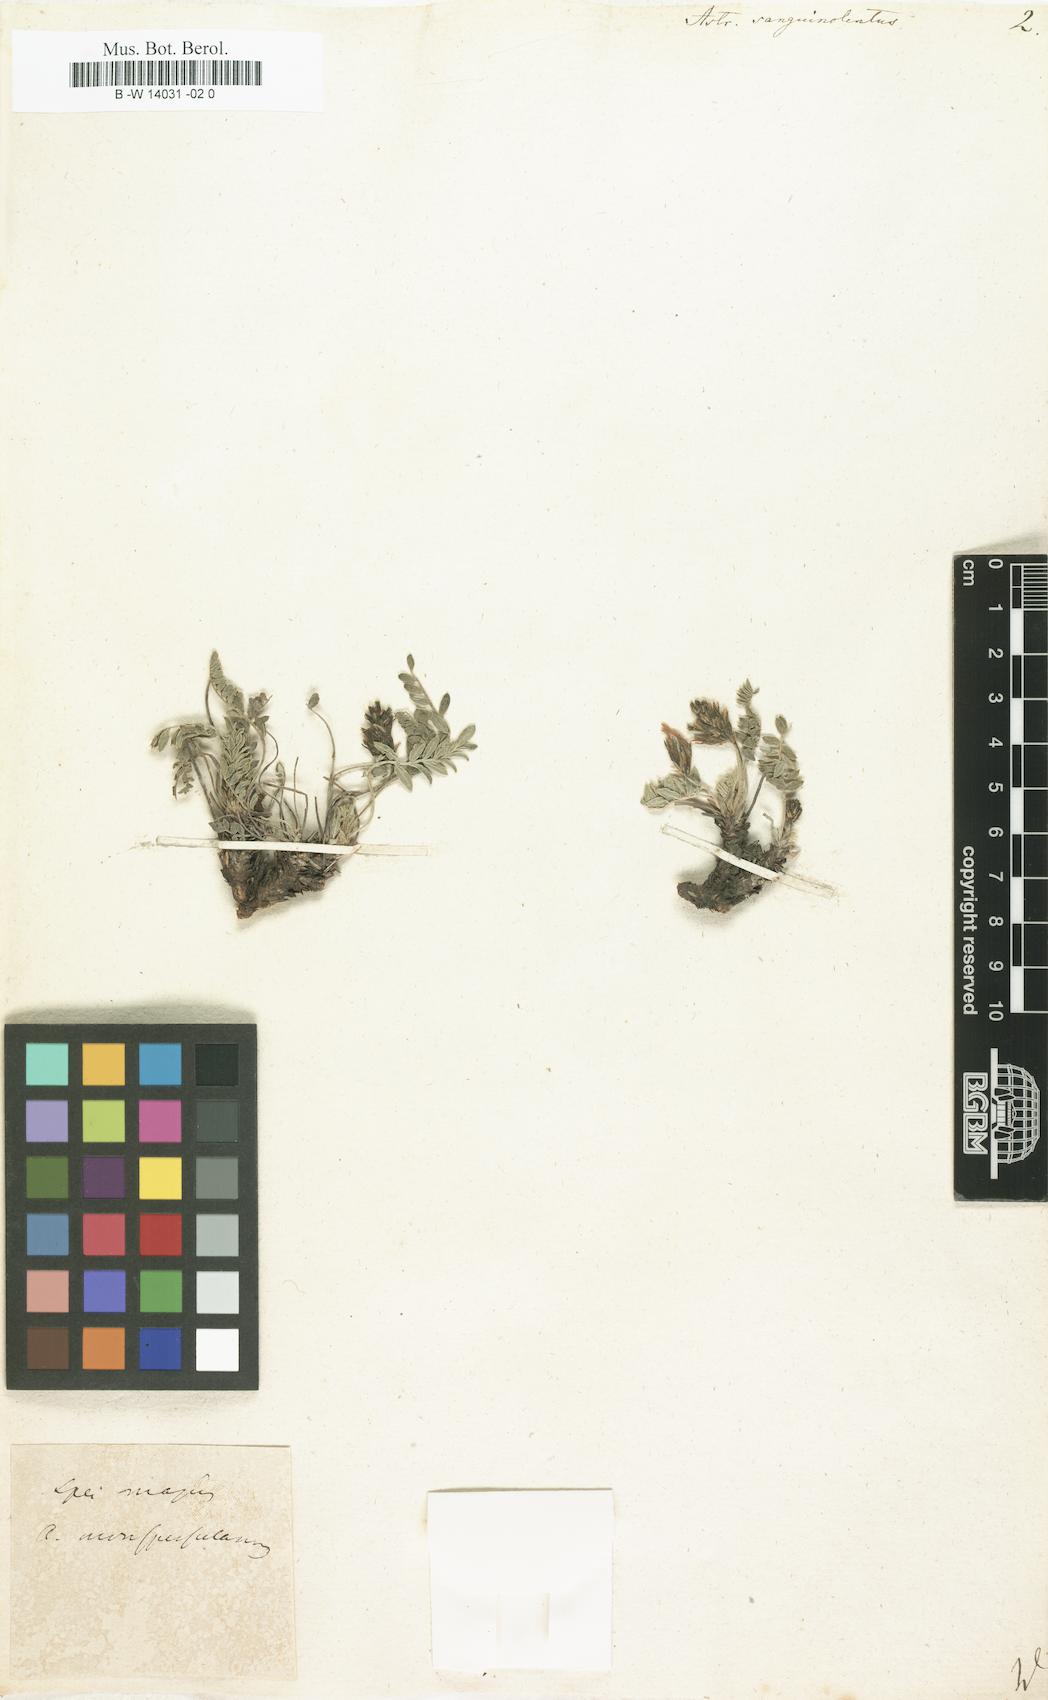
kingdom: Plantae
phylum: Tracheophyta
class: Magnoliopsida
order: Fabales
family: Fabaceae
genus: Astragalus
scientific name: Astragalus sanguinolentus
